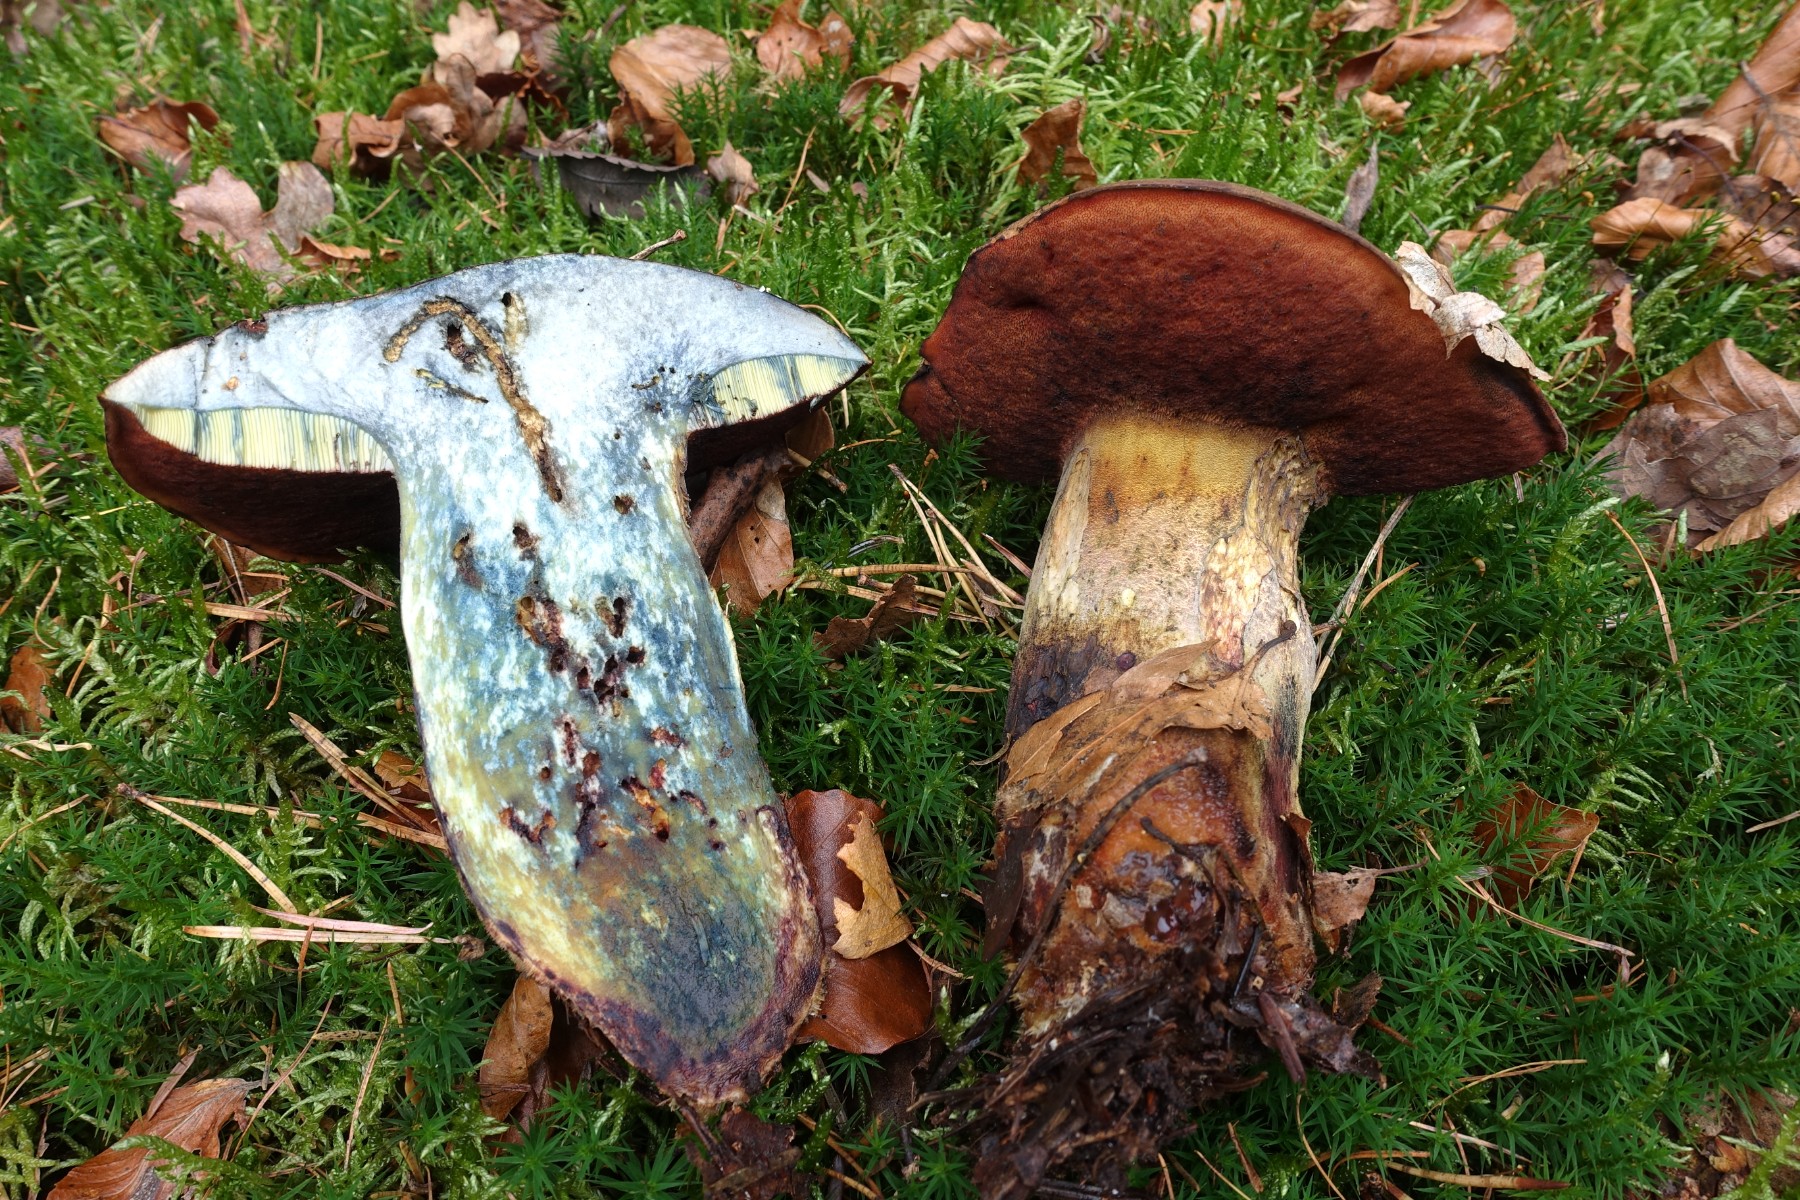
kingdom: Fungi
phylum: Basidiomycota
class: Agaricomycetes
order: Boletales
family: Boletaceae
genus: Neoboletus
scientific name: Neoboletus erythropus
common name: punktstokket indigorørhat
